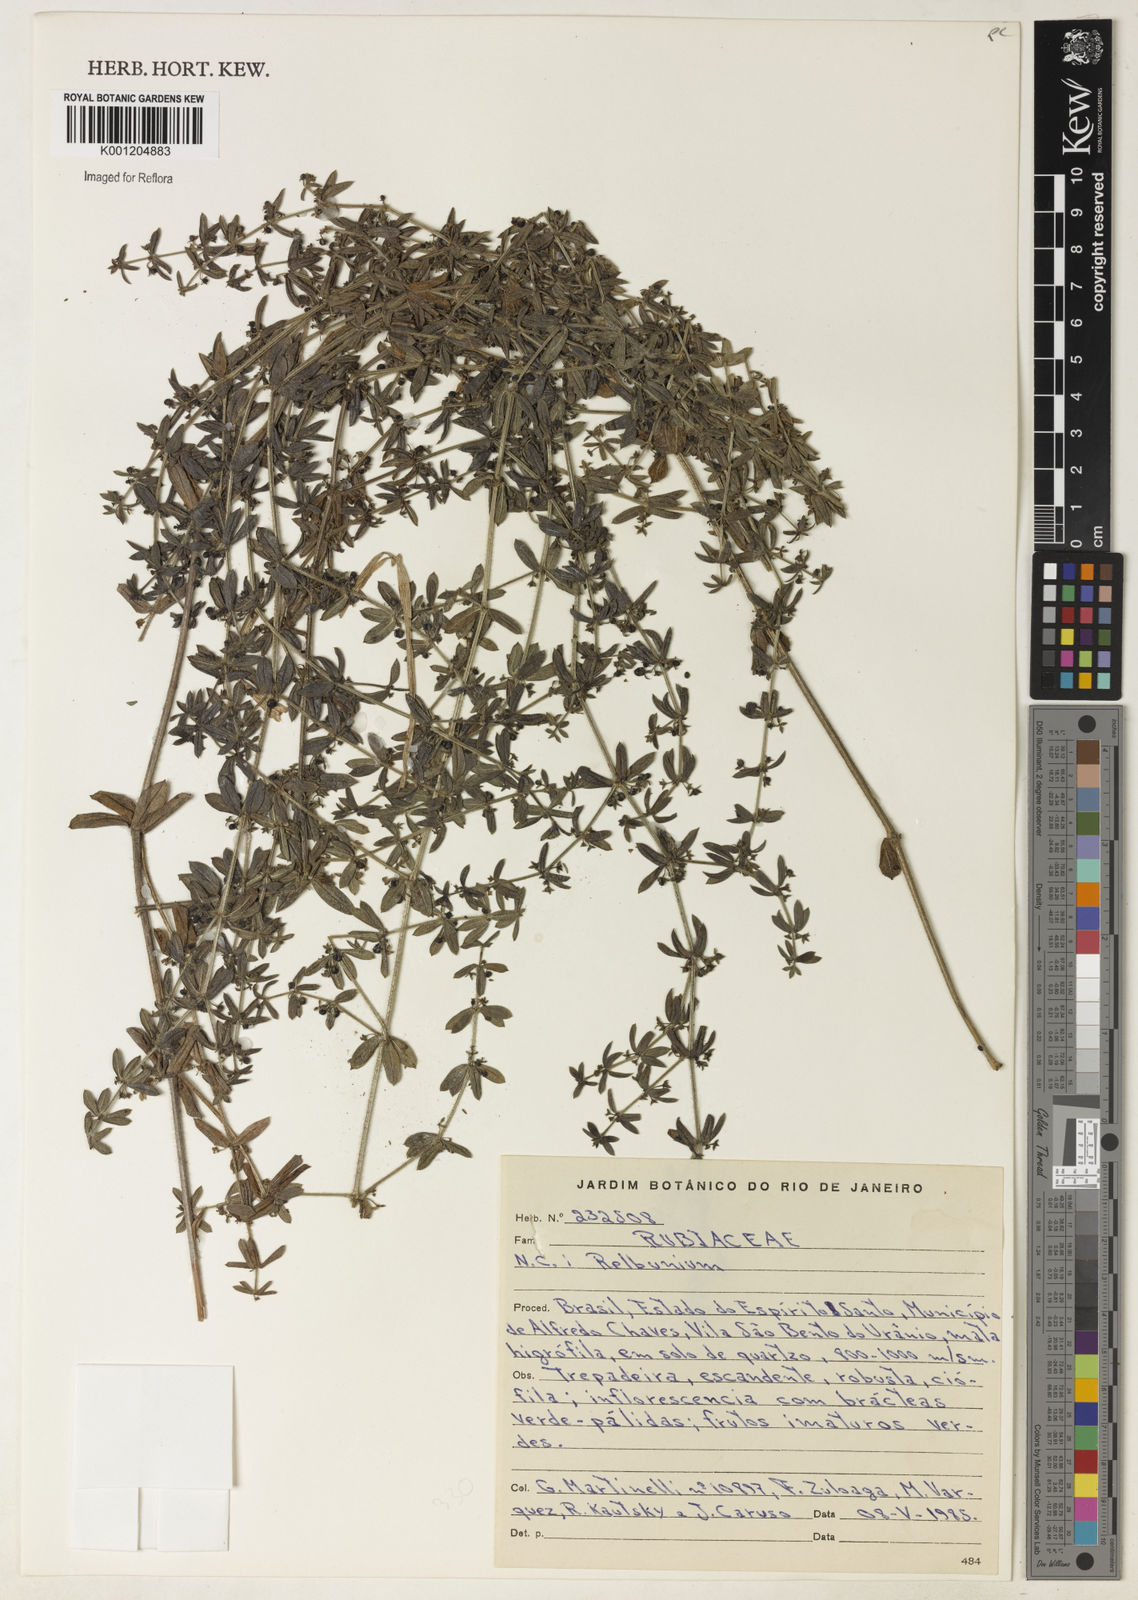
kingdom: Plantae
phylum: Tracheophyta
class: Magnoliopsida
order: Gentianales
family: Rubiaceae
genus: Galium
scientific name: Galium
